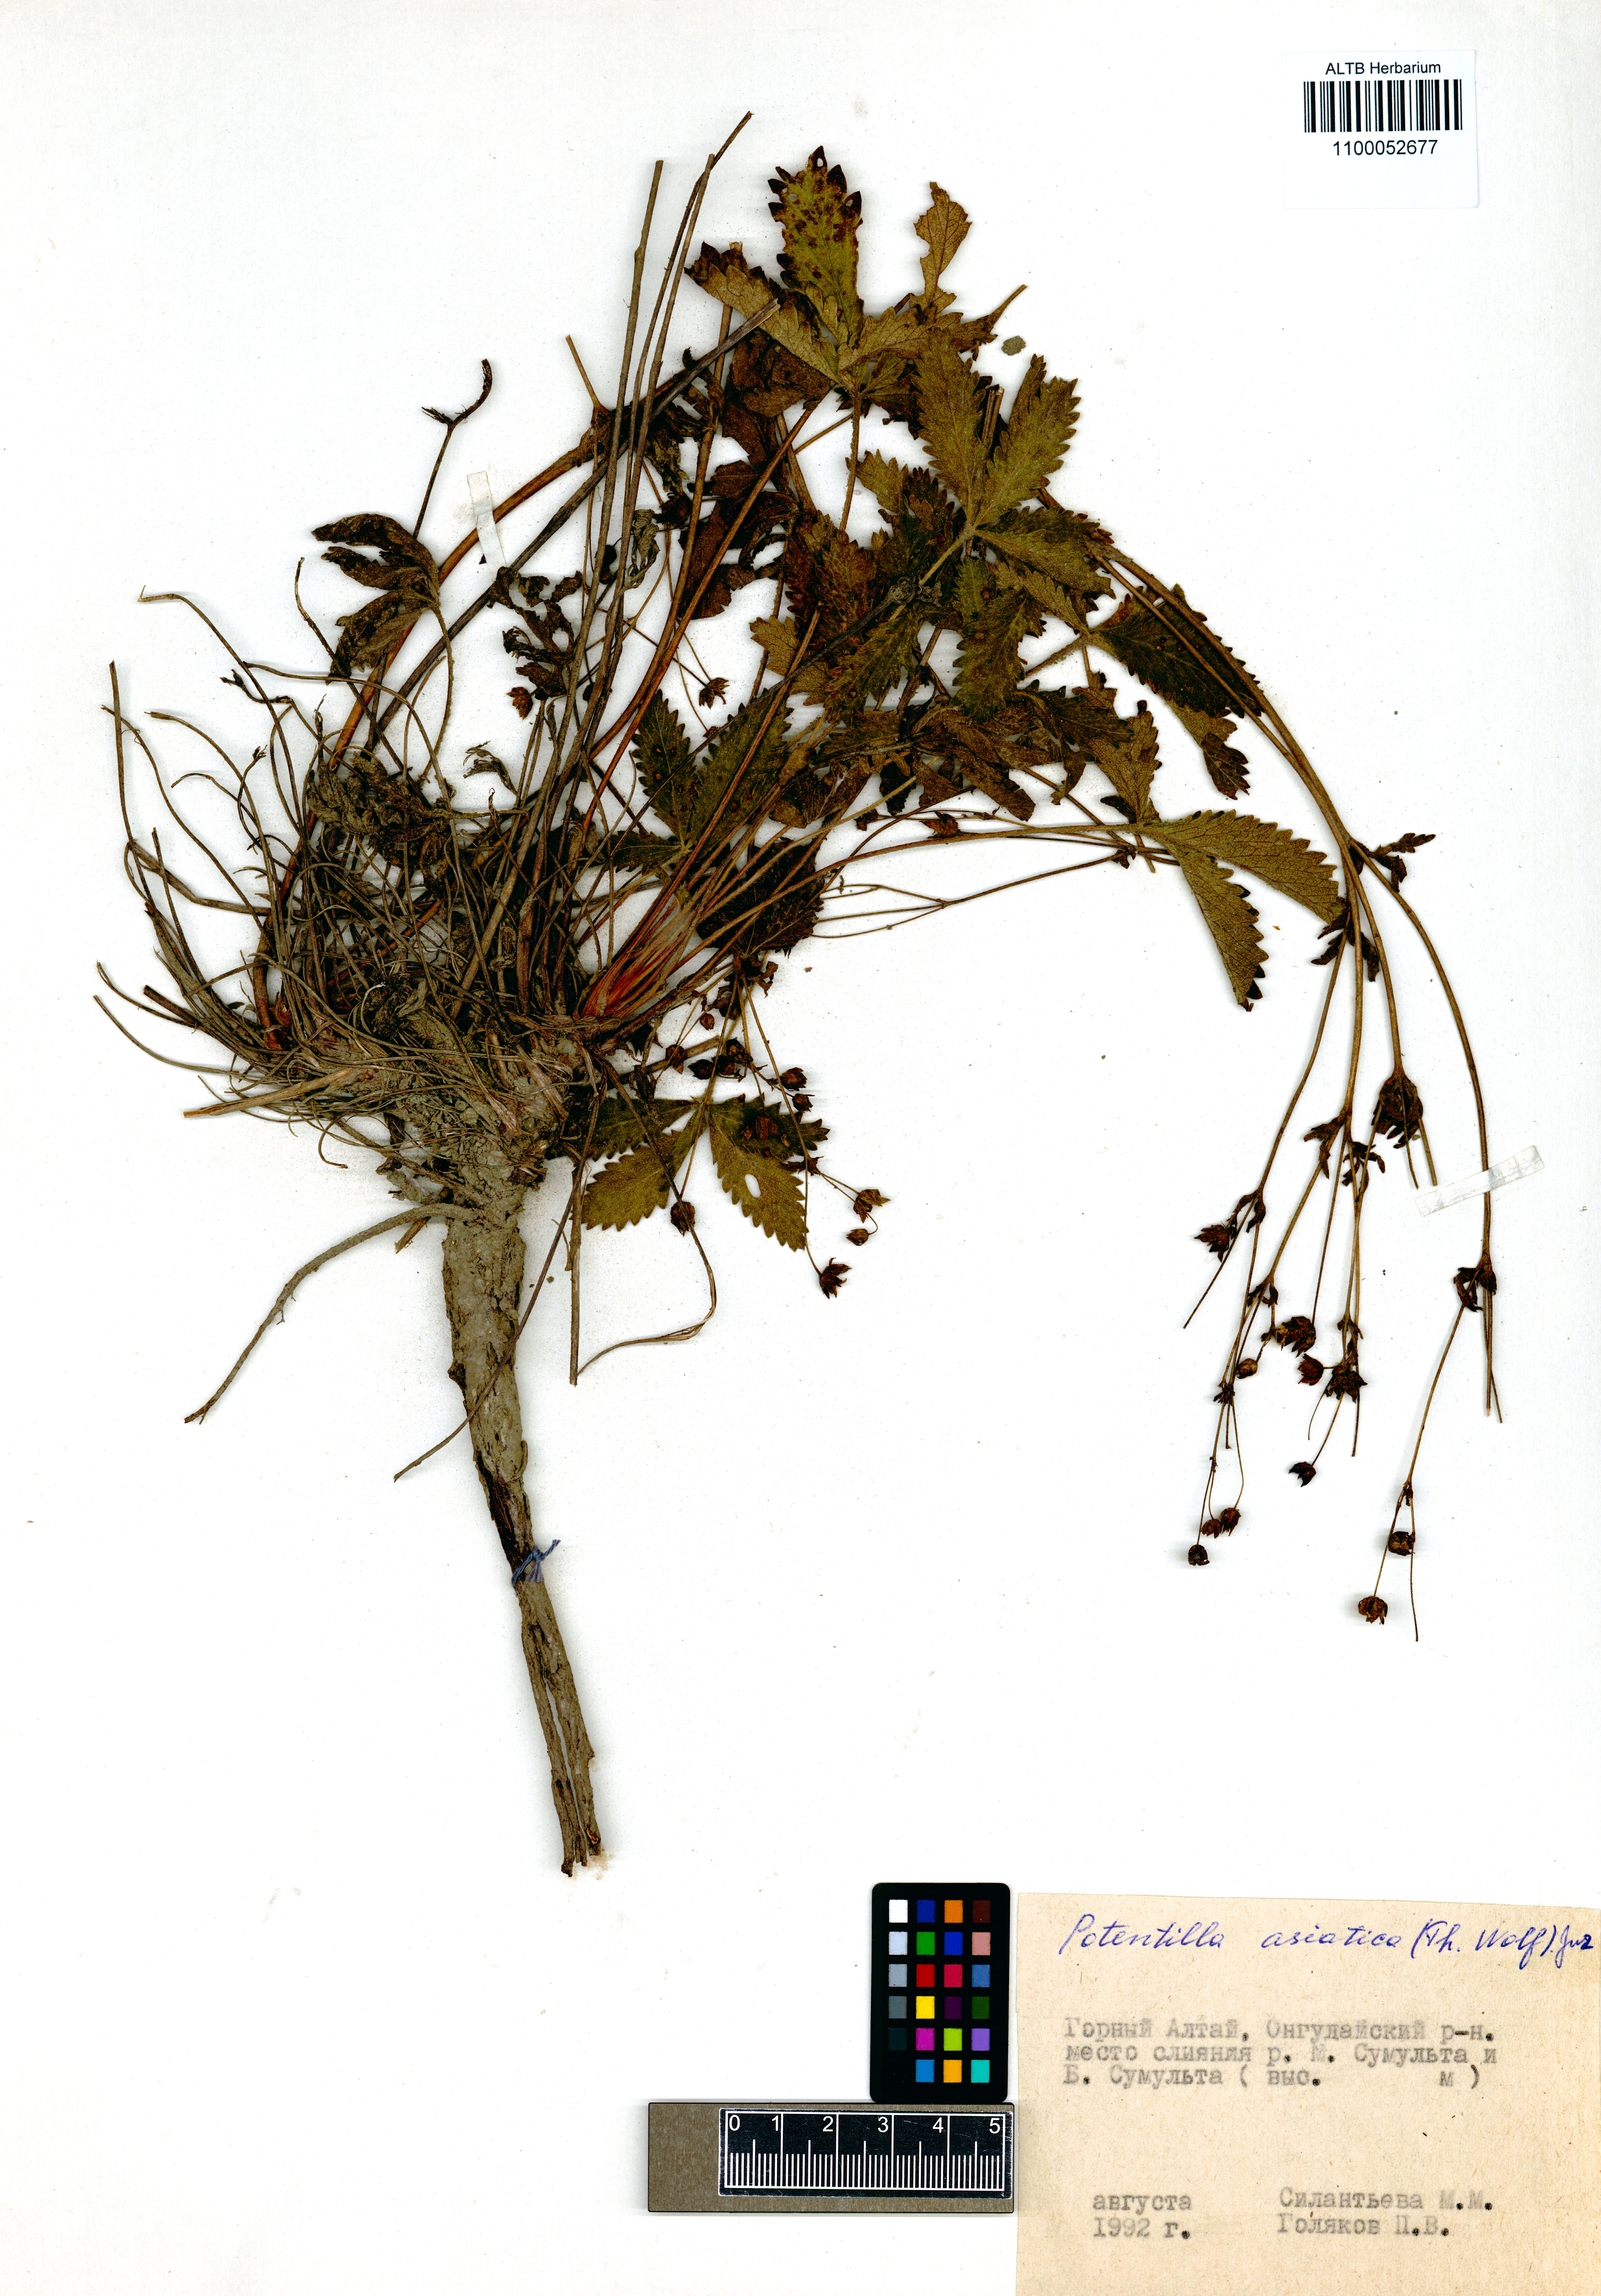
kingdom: Plantae
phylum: Tracheophyta
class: Magnoliopsida
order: Rosales
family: Rosaceae
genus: Potentilla
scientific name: Potentilla asiatica
